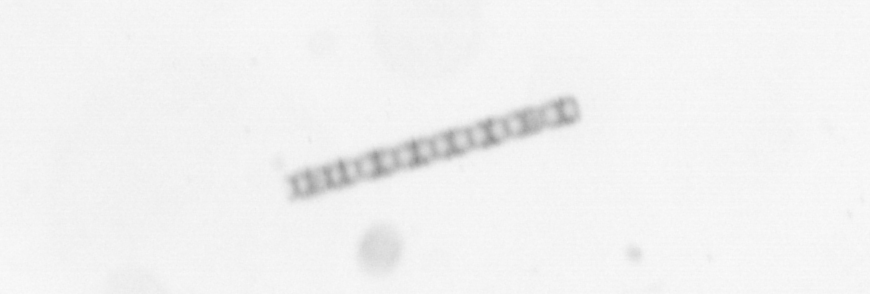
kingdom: Chromista
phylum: Ochrophyta
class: Bacillariophyceae
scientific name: Bacillariophyceae
